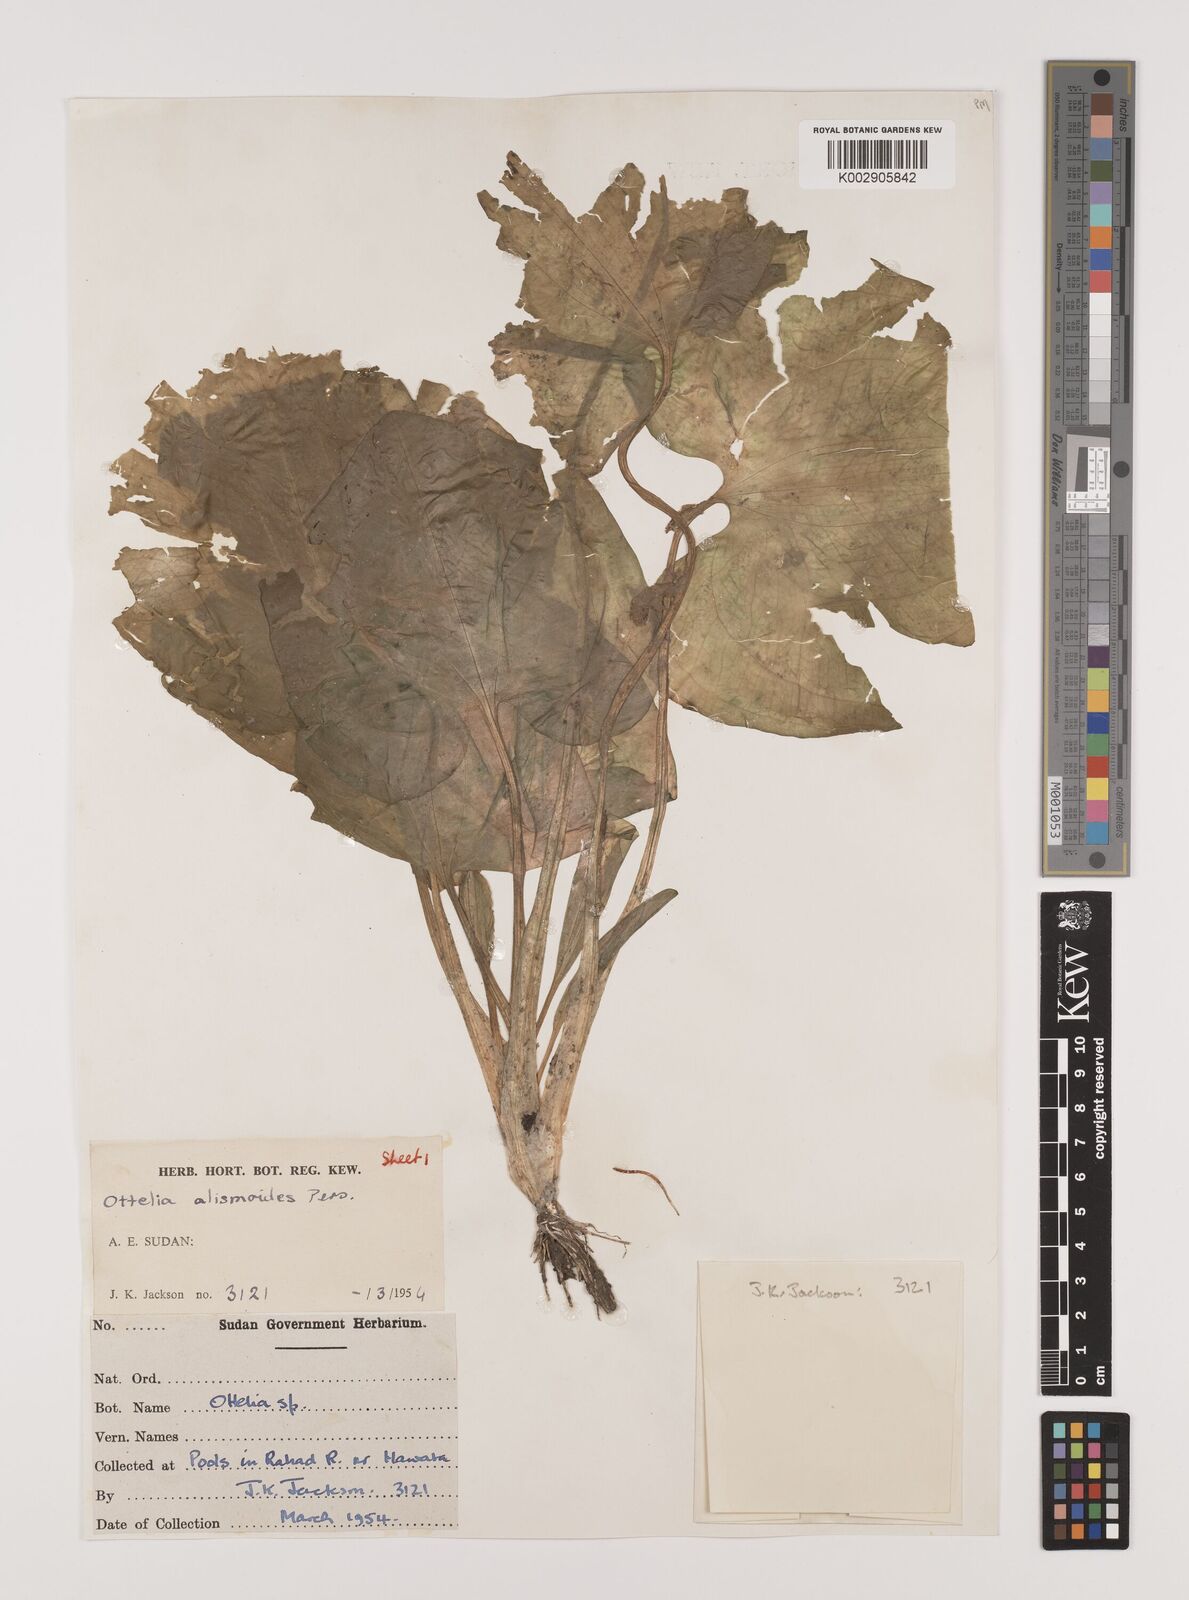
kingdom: Plantae
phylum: Tracheophyta
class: Liliopsida
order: Alismatales
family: Hydrocharitaceae
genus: Ottelia
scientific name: Ottelia alismoides
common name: Duck-lettuce
